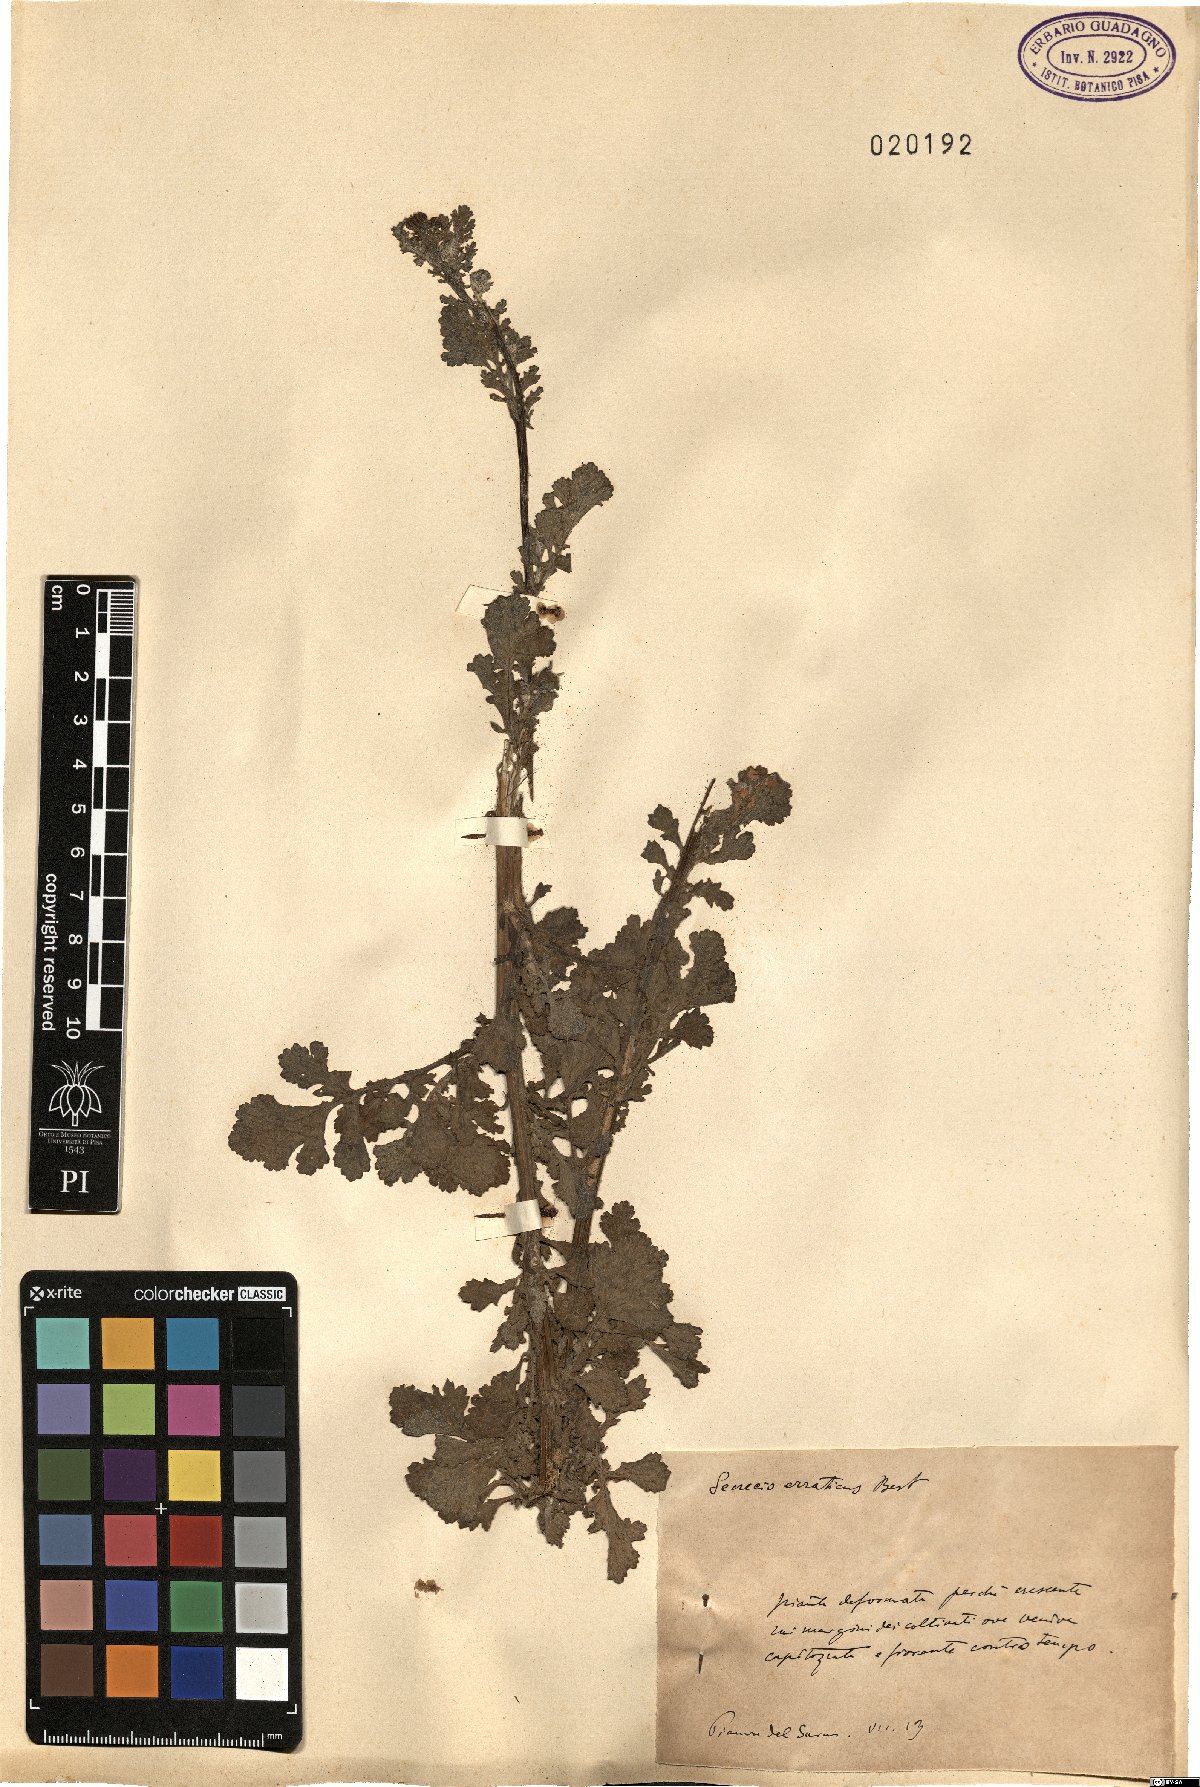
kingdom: Plantae
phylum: Tracheophyta
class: Magnoliopsida
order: Asterales
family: Asteraceae
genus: Jacobaea
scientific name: Jacobaea erratica
